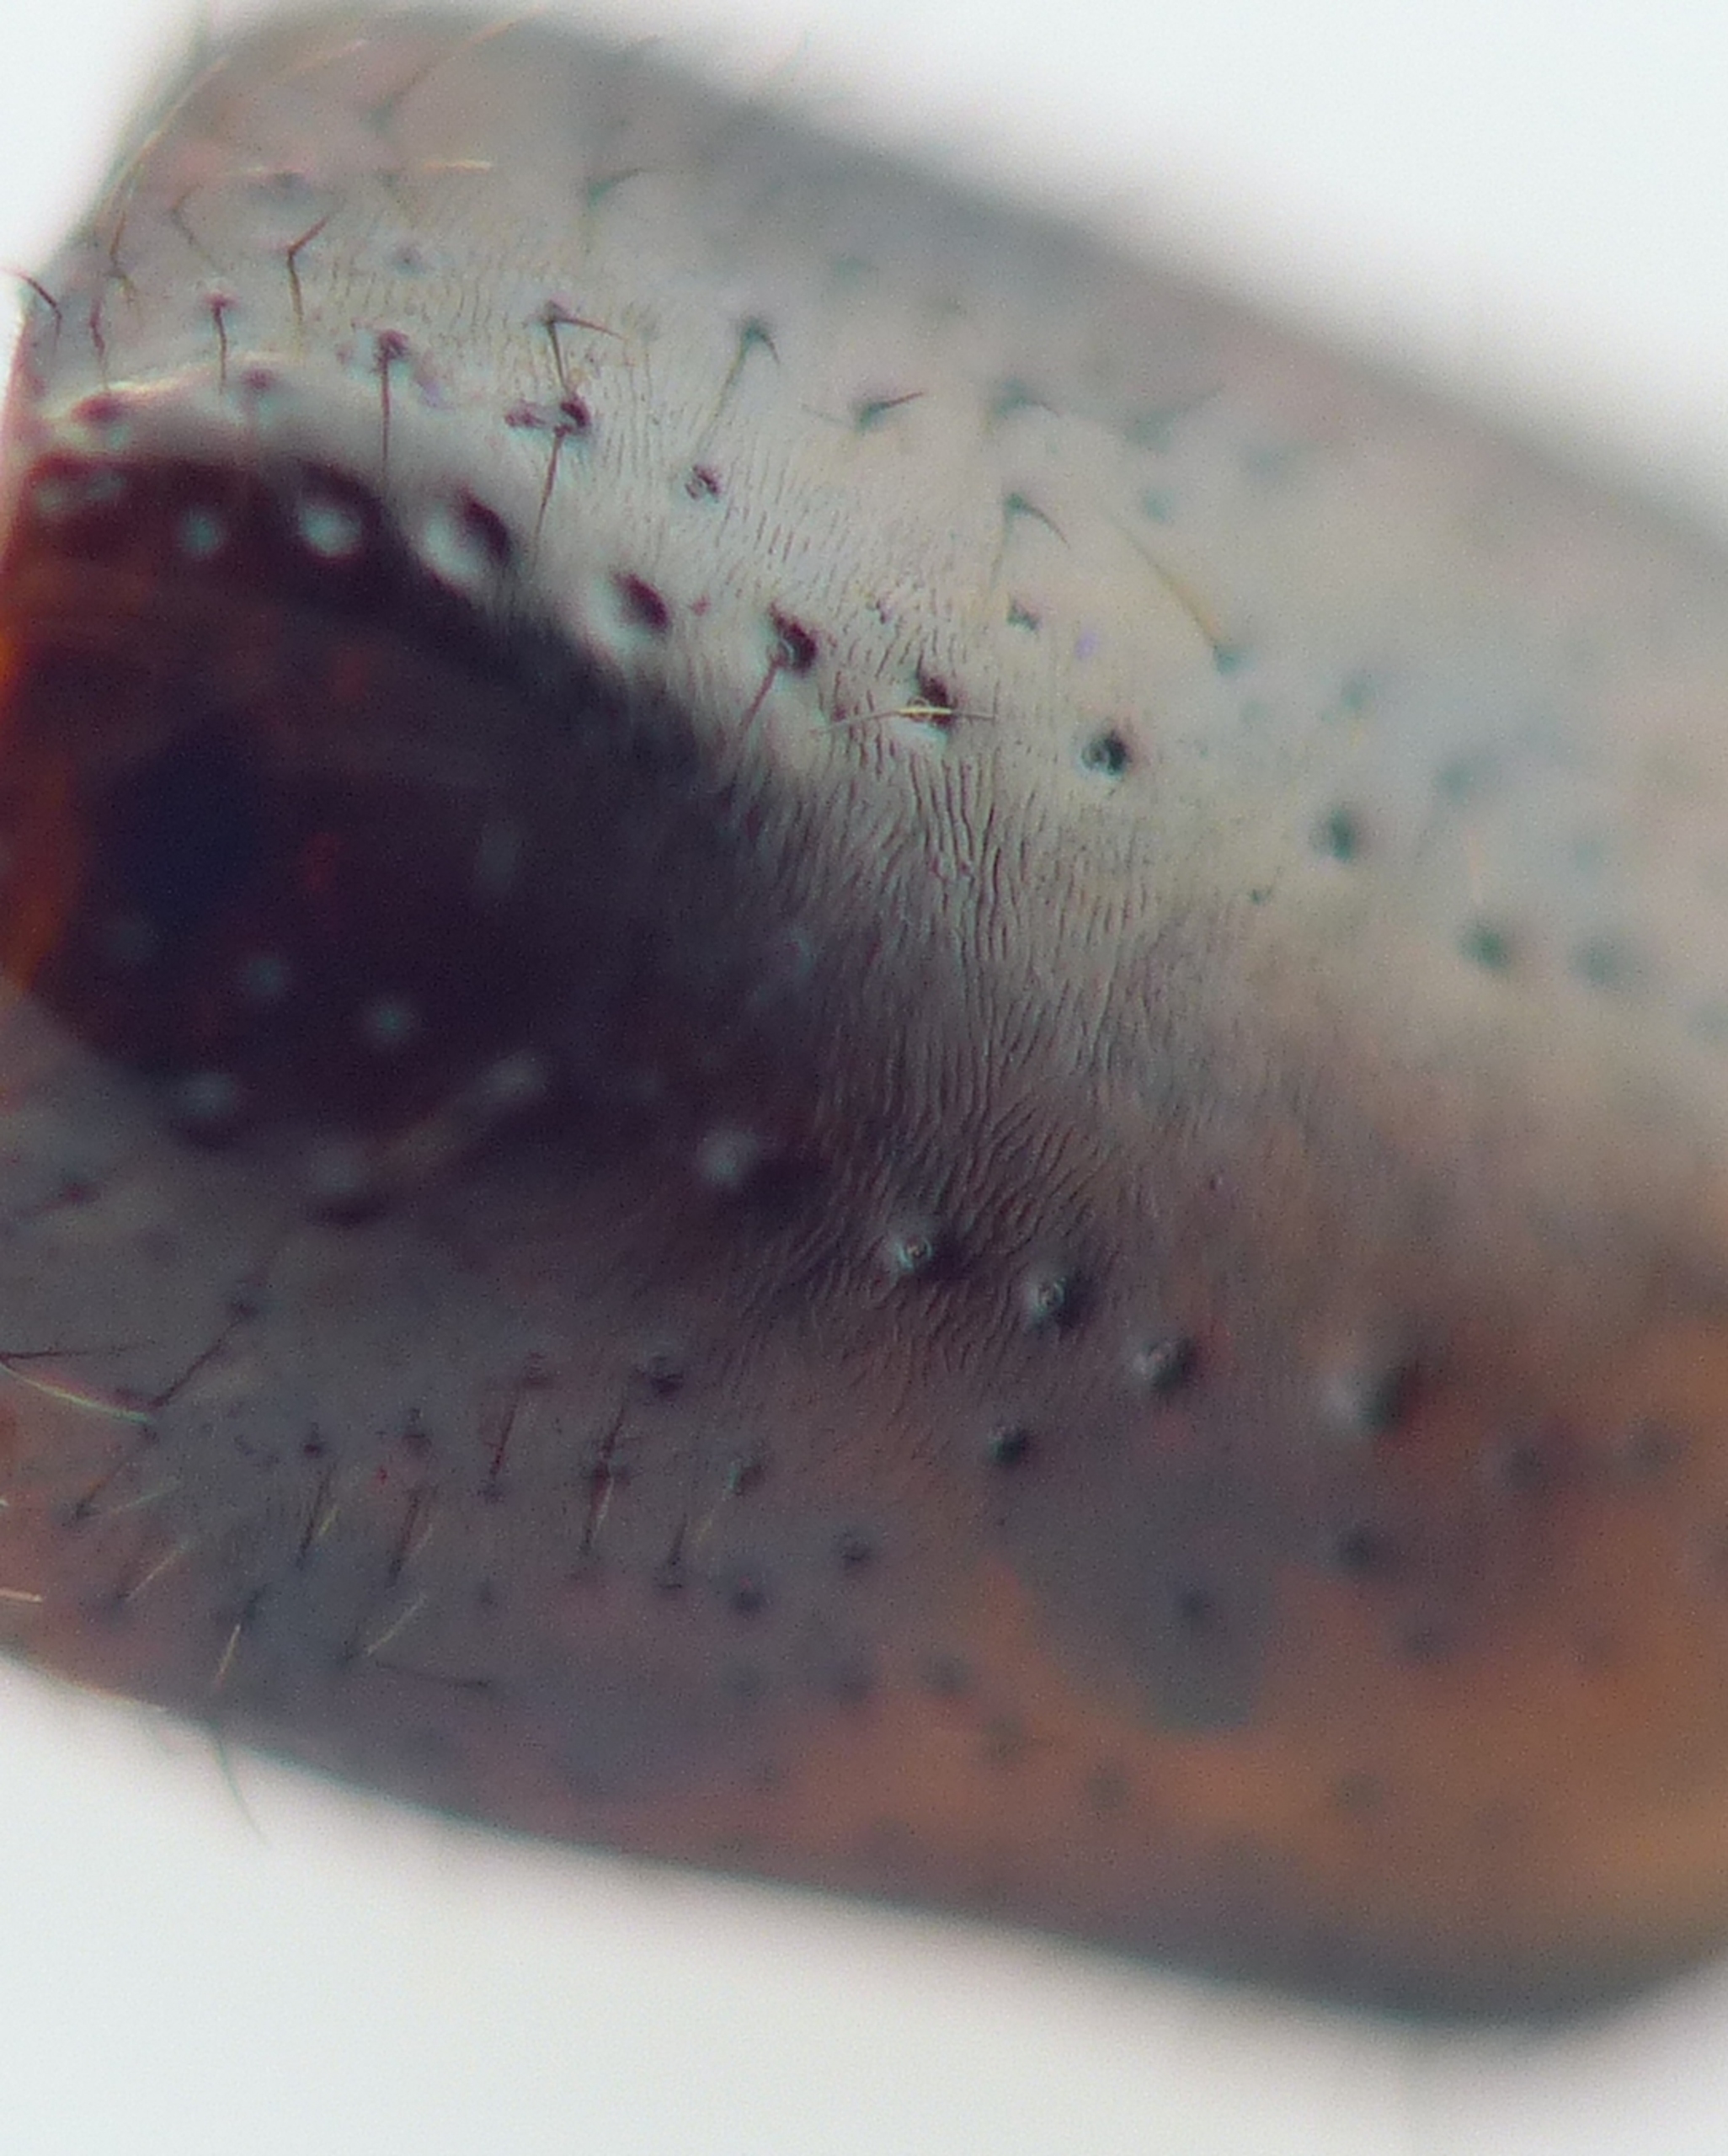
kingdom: Animalia
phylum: Arthropoda
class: Insecta
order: Coleoptera
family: Staphylinidae
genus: Xantholinus
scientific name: Xantholinus linearis
